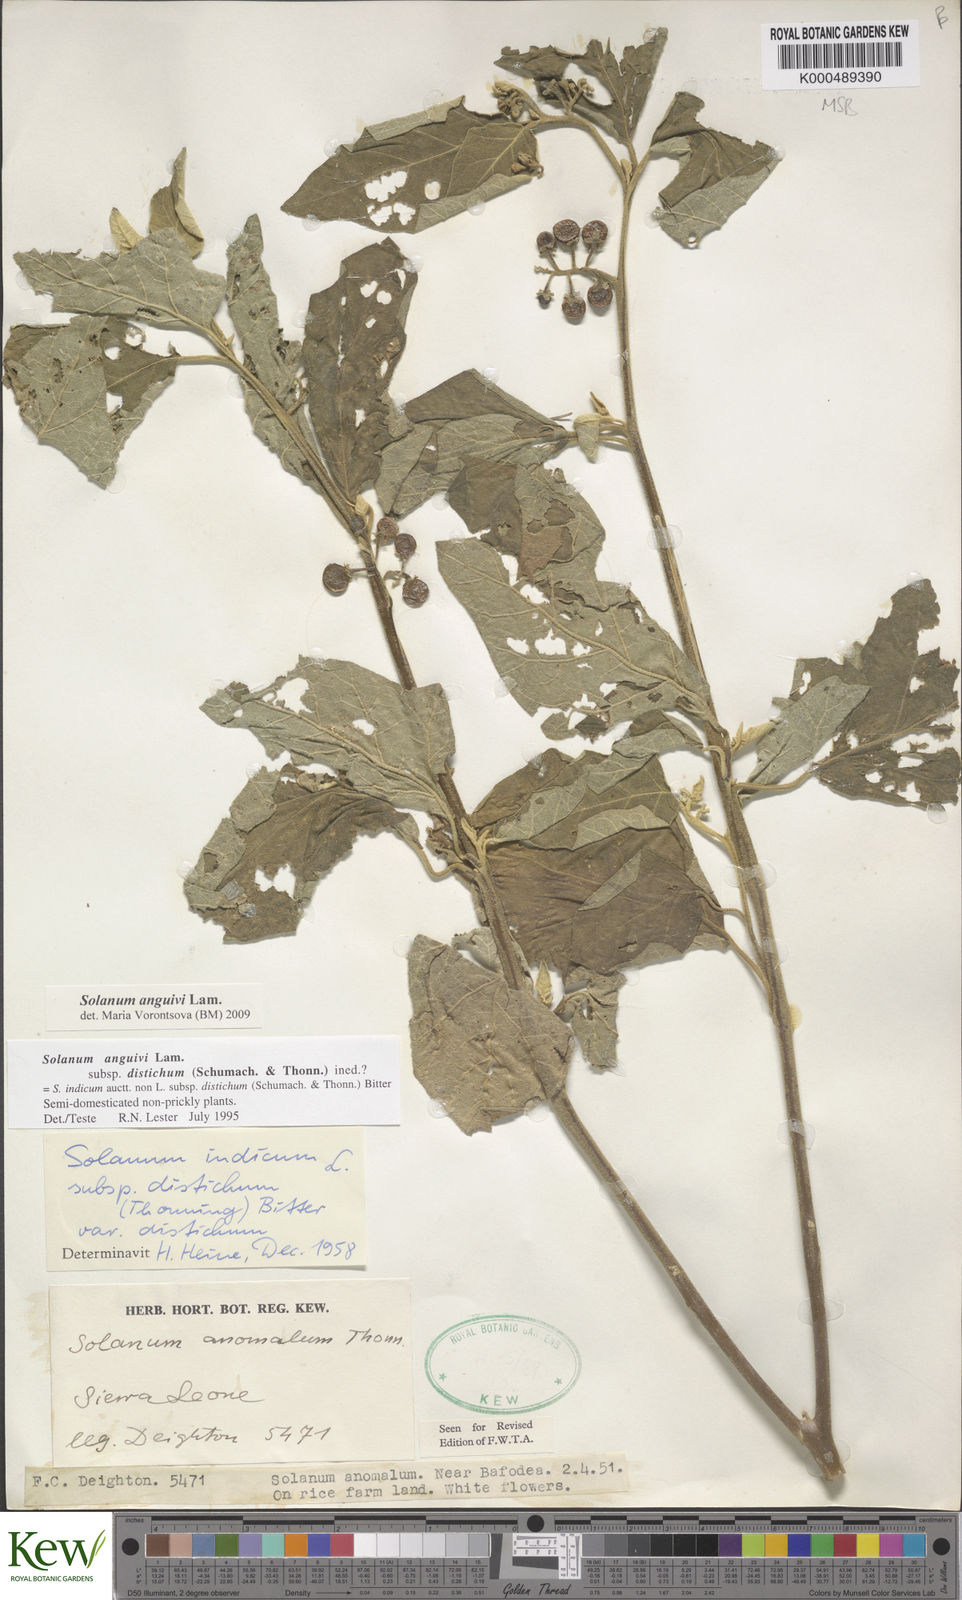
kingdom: Plantae
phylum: Tracheophyta
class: Magnoliopsida
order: Solanales
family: Solanaceae
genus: Solanum
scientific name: Solanum anguivi
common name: Forest bitterberry
